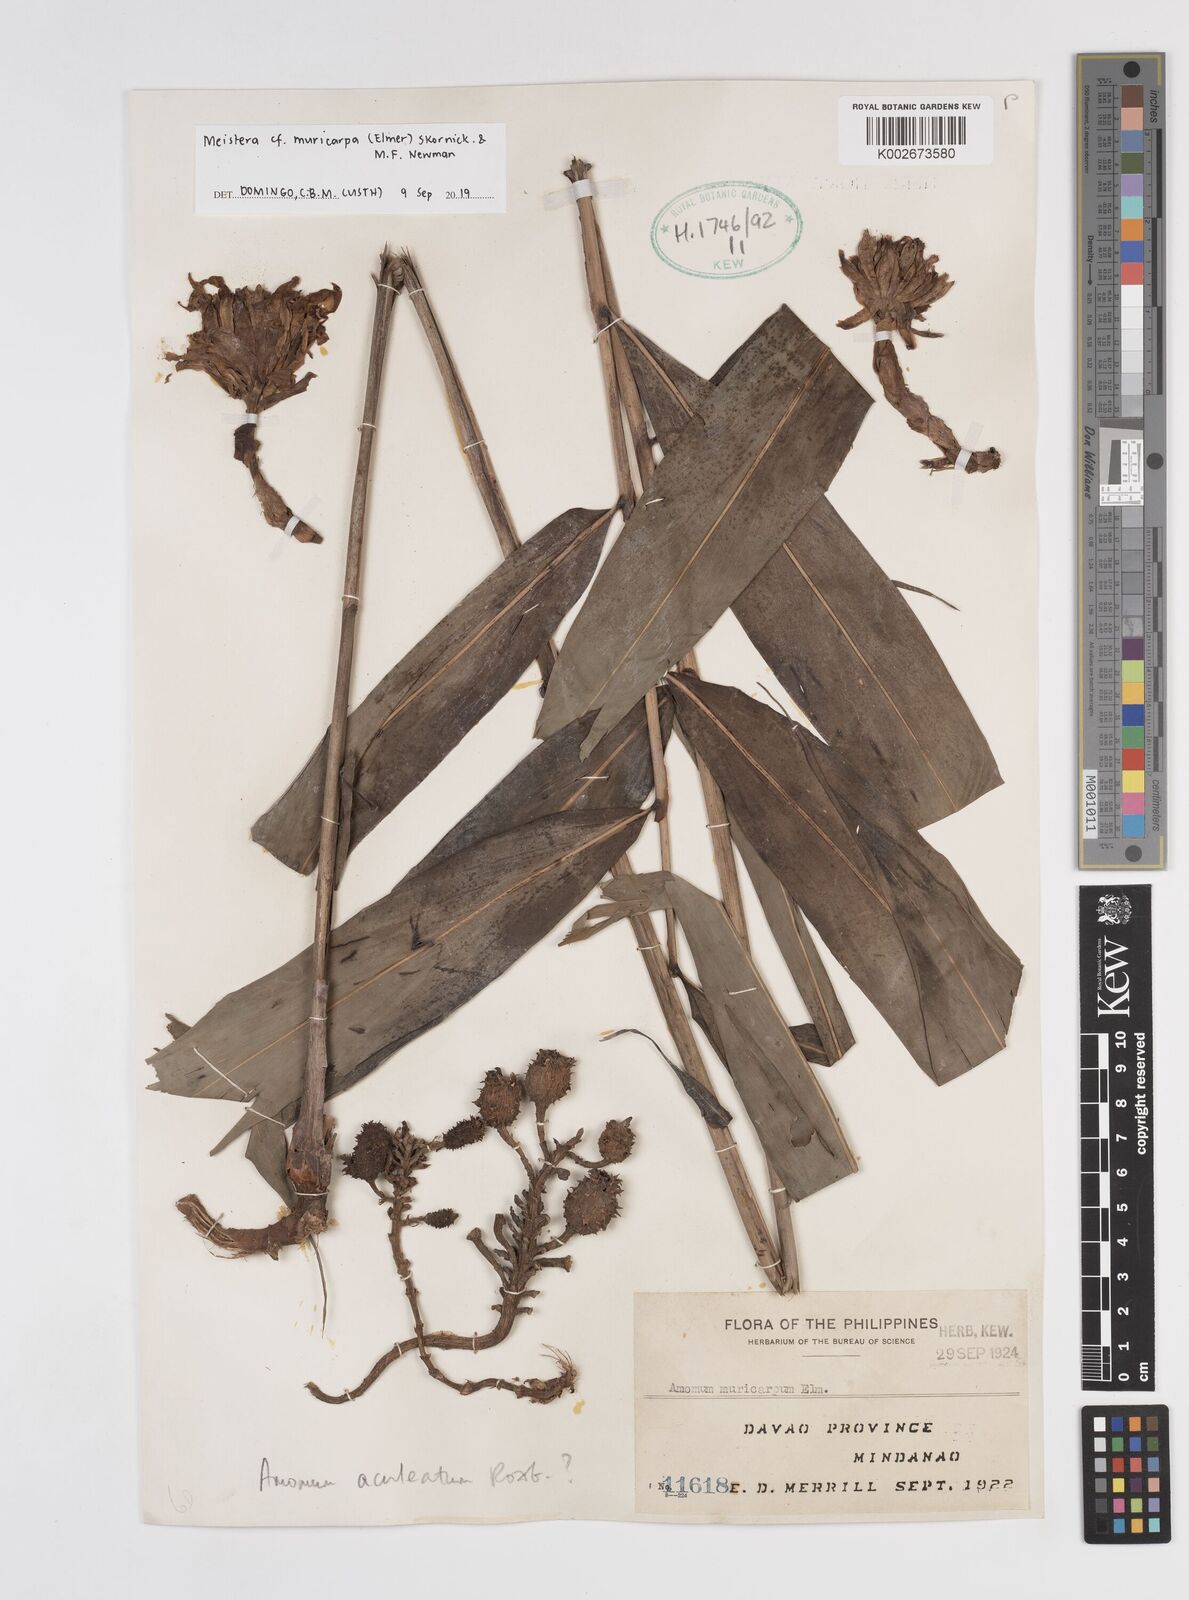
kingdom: Plantae
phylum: Tracheophyta
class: Liliopsida
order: Zingiberales
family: Zingiberaceae
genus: Meistera
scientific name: Meistera muricarpa
